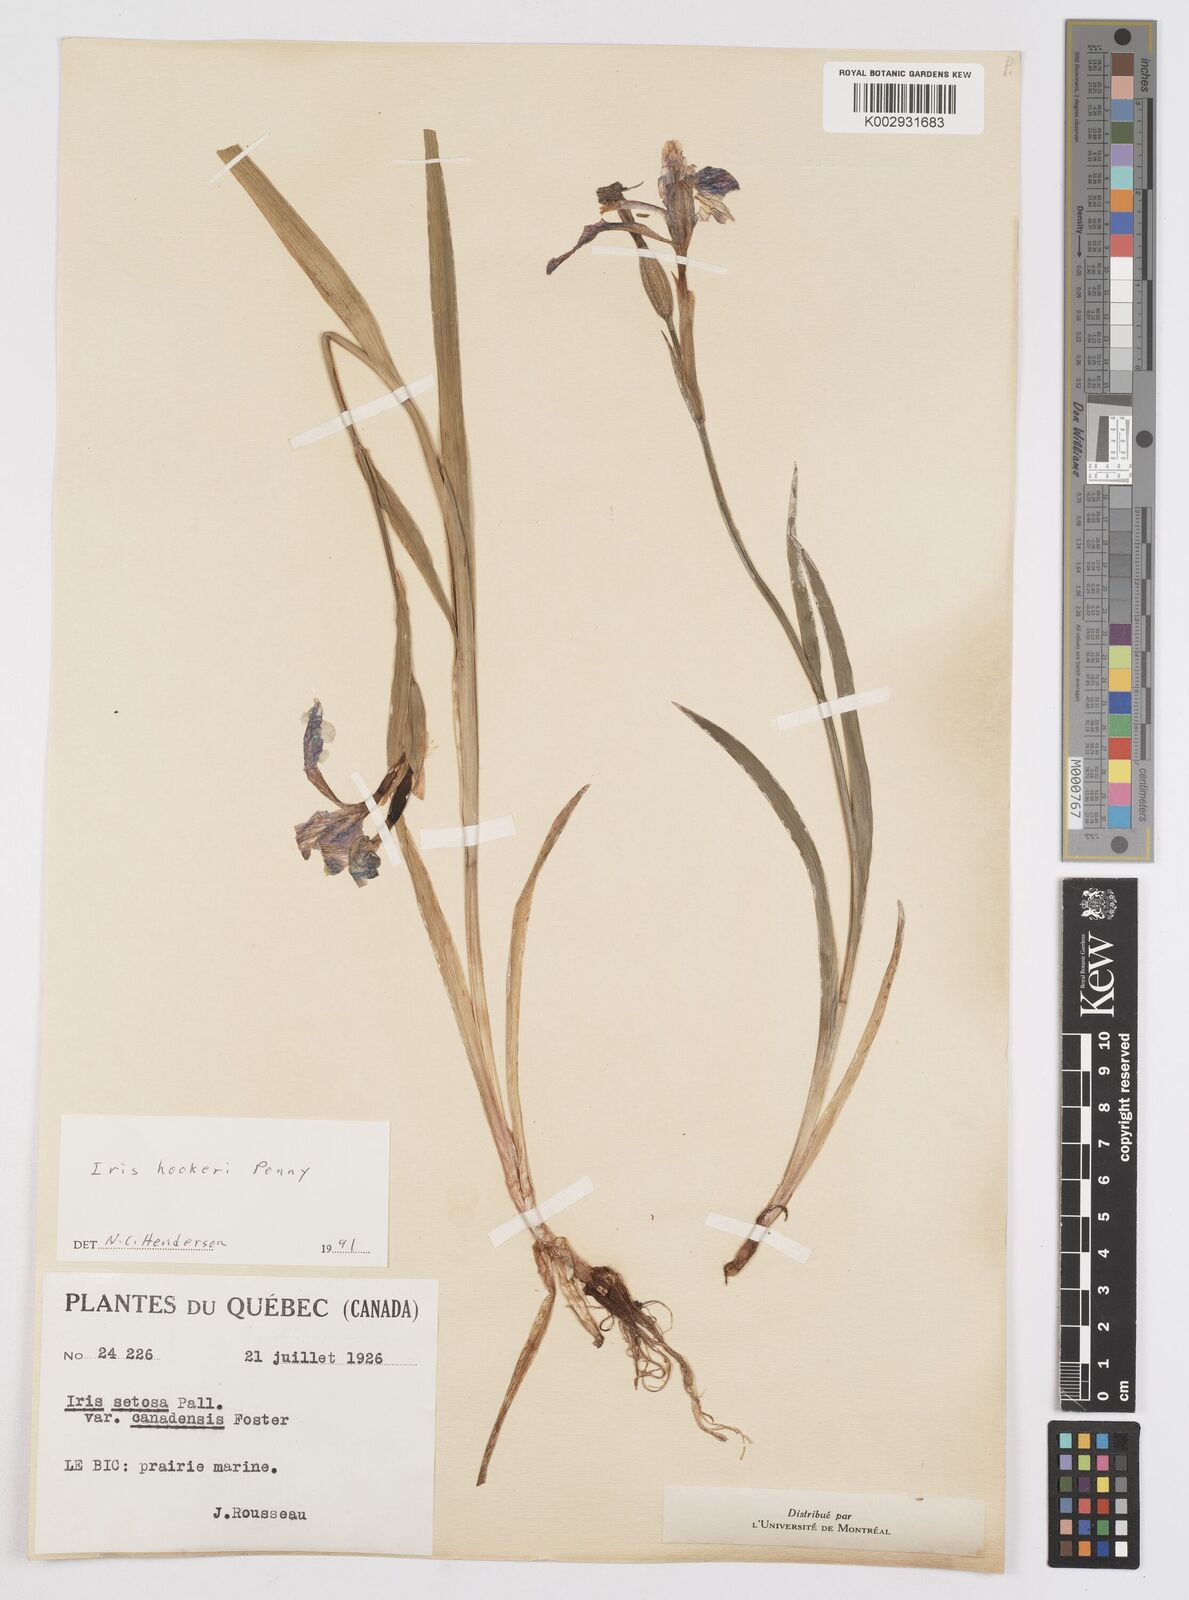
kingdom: Plantae
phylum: Tracheophyta
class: Liliopsida
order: Asparagales
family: Iridaceae
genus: Iris
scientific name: Iris setosa
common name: Arctic blue flag
